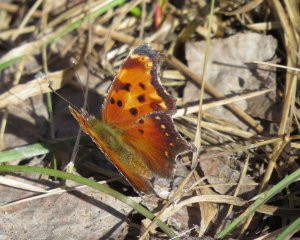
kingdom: Animalia
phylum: Arthropoda
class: Insecta
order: Lepidoptera
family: Nymphalidae
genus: Polygonia
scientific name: Polygonia progne
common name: Gray Comma
